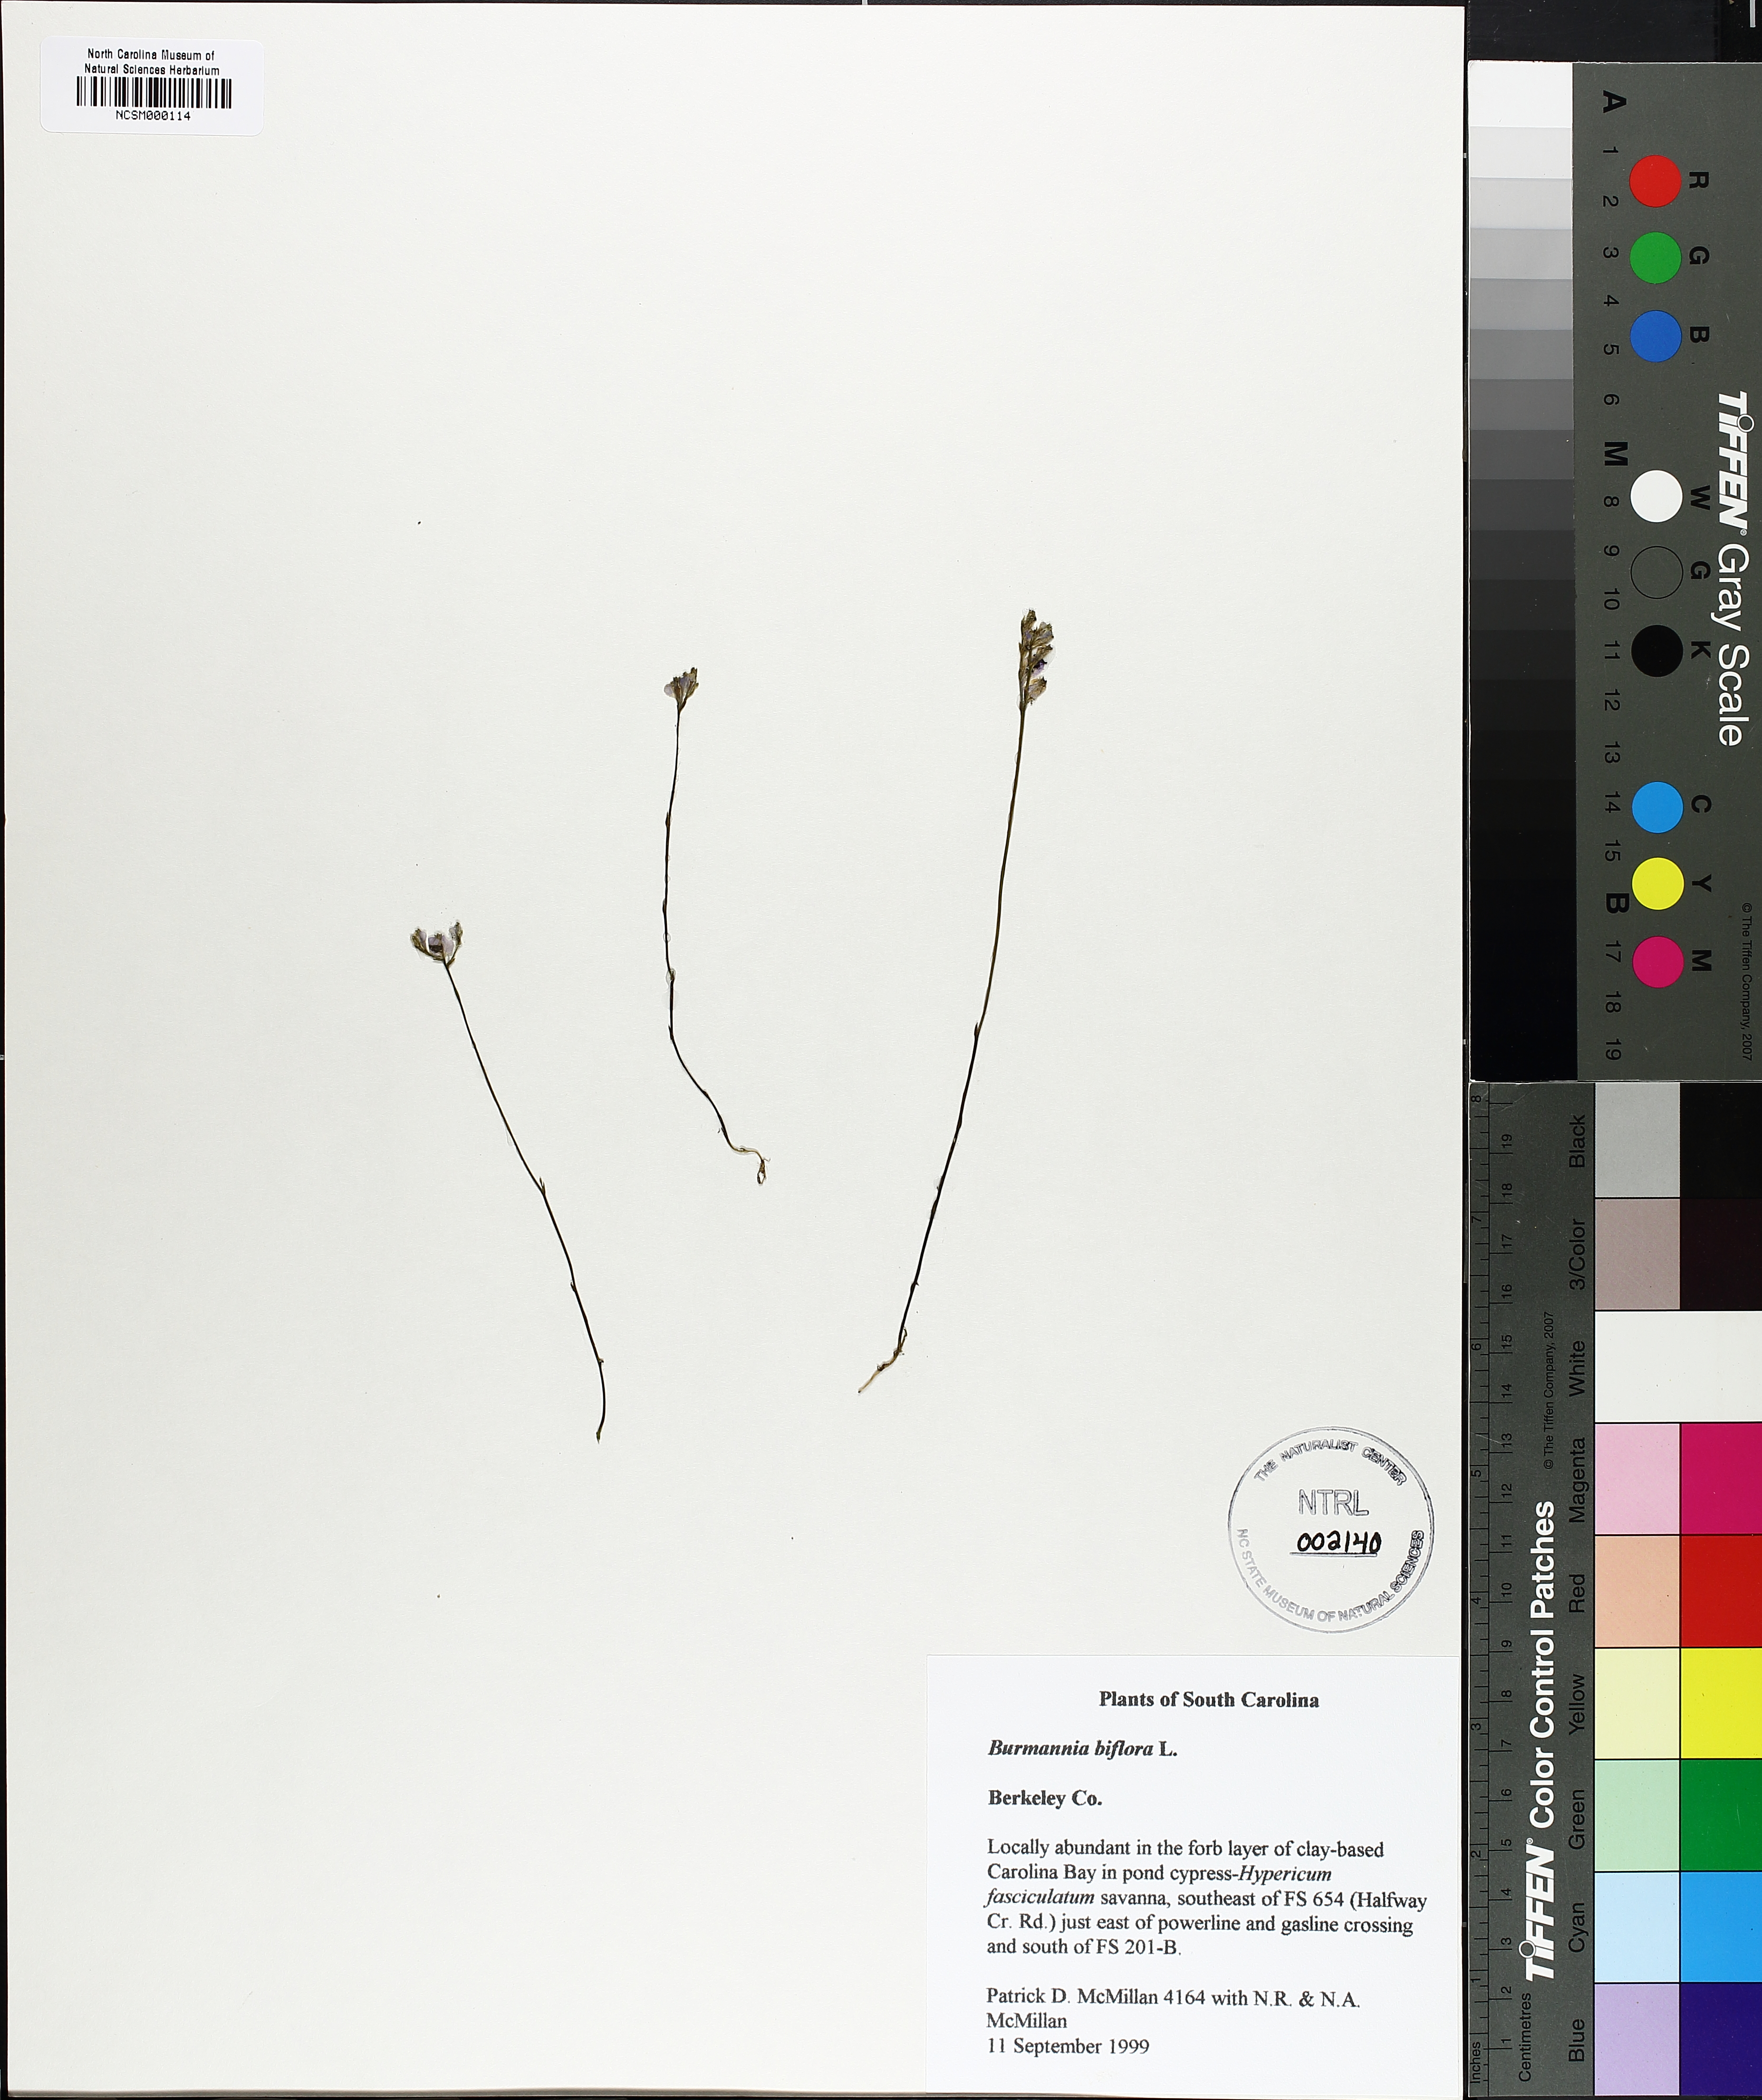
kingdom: Plantae
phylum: Tracheophyta
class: Liliopsida
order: Dioscoreales
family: Burmanniaceae
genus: Burmannia
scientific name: Burmannia biflora
